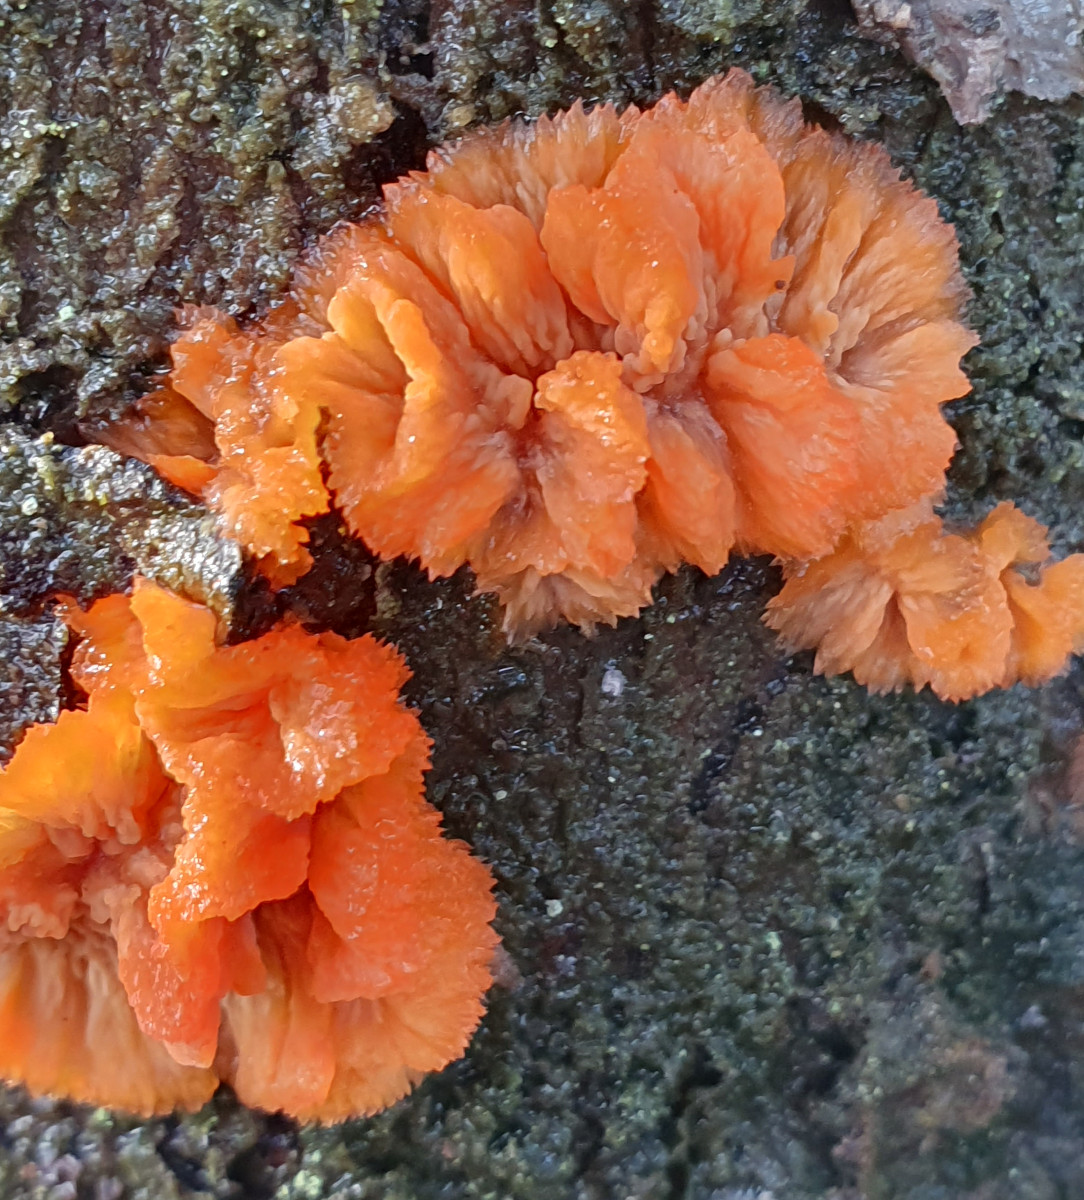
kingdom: Fungi
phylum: Basidiomycota
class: Agaricomycetes
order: Polyporales
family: Meruliaceae
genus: Phlebia
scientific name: Phlebia radiata
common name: stråle-åresvamp
